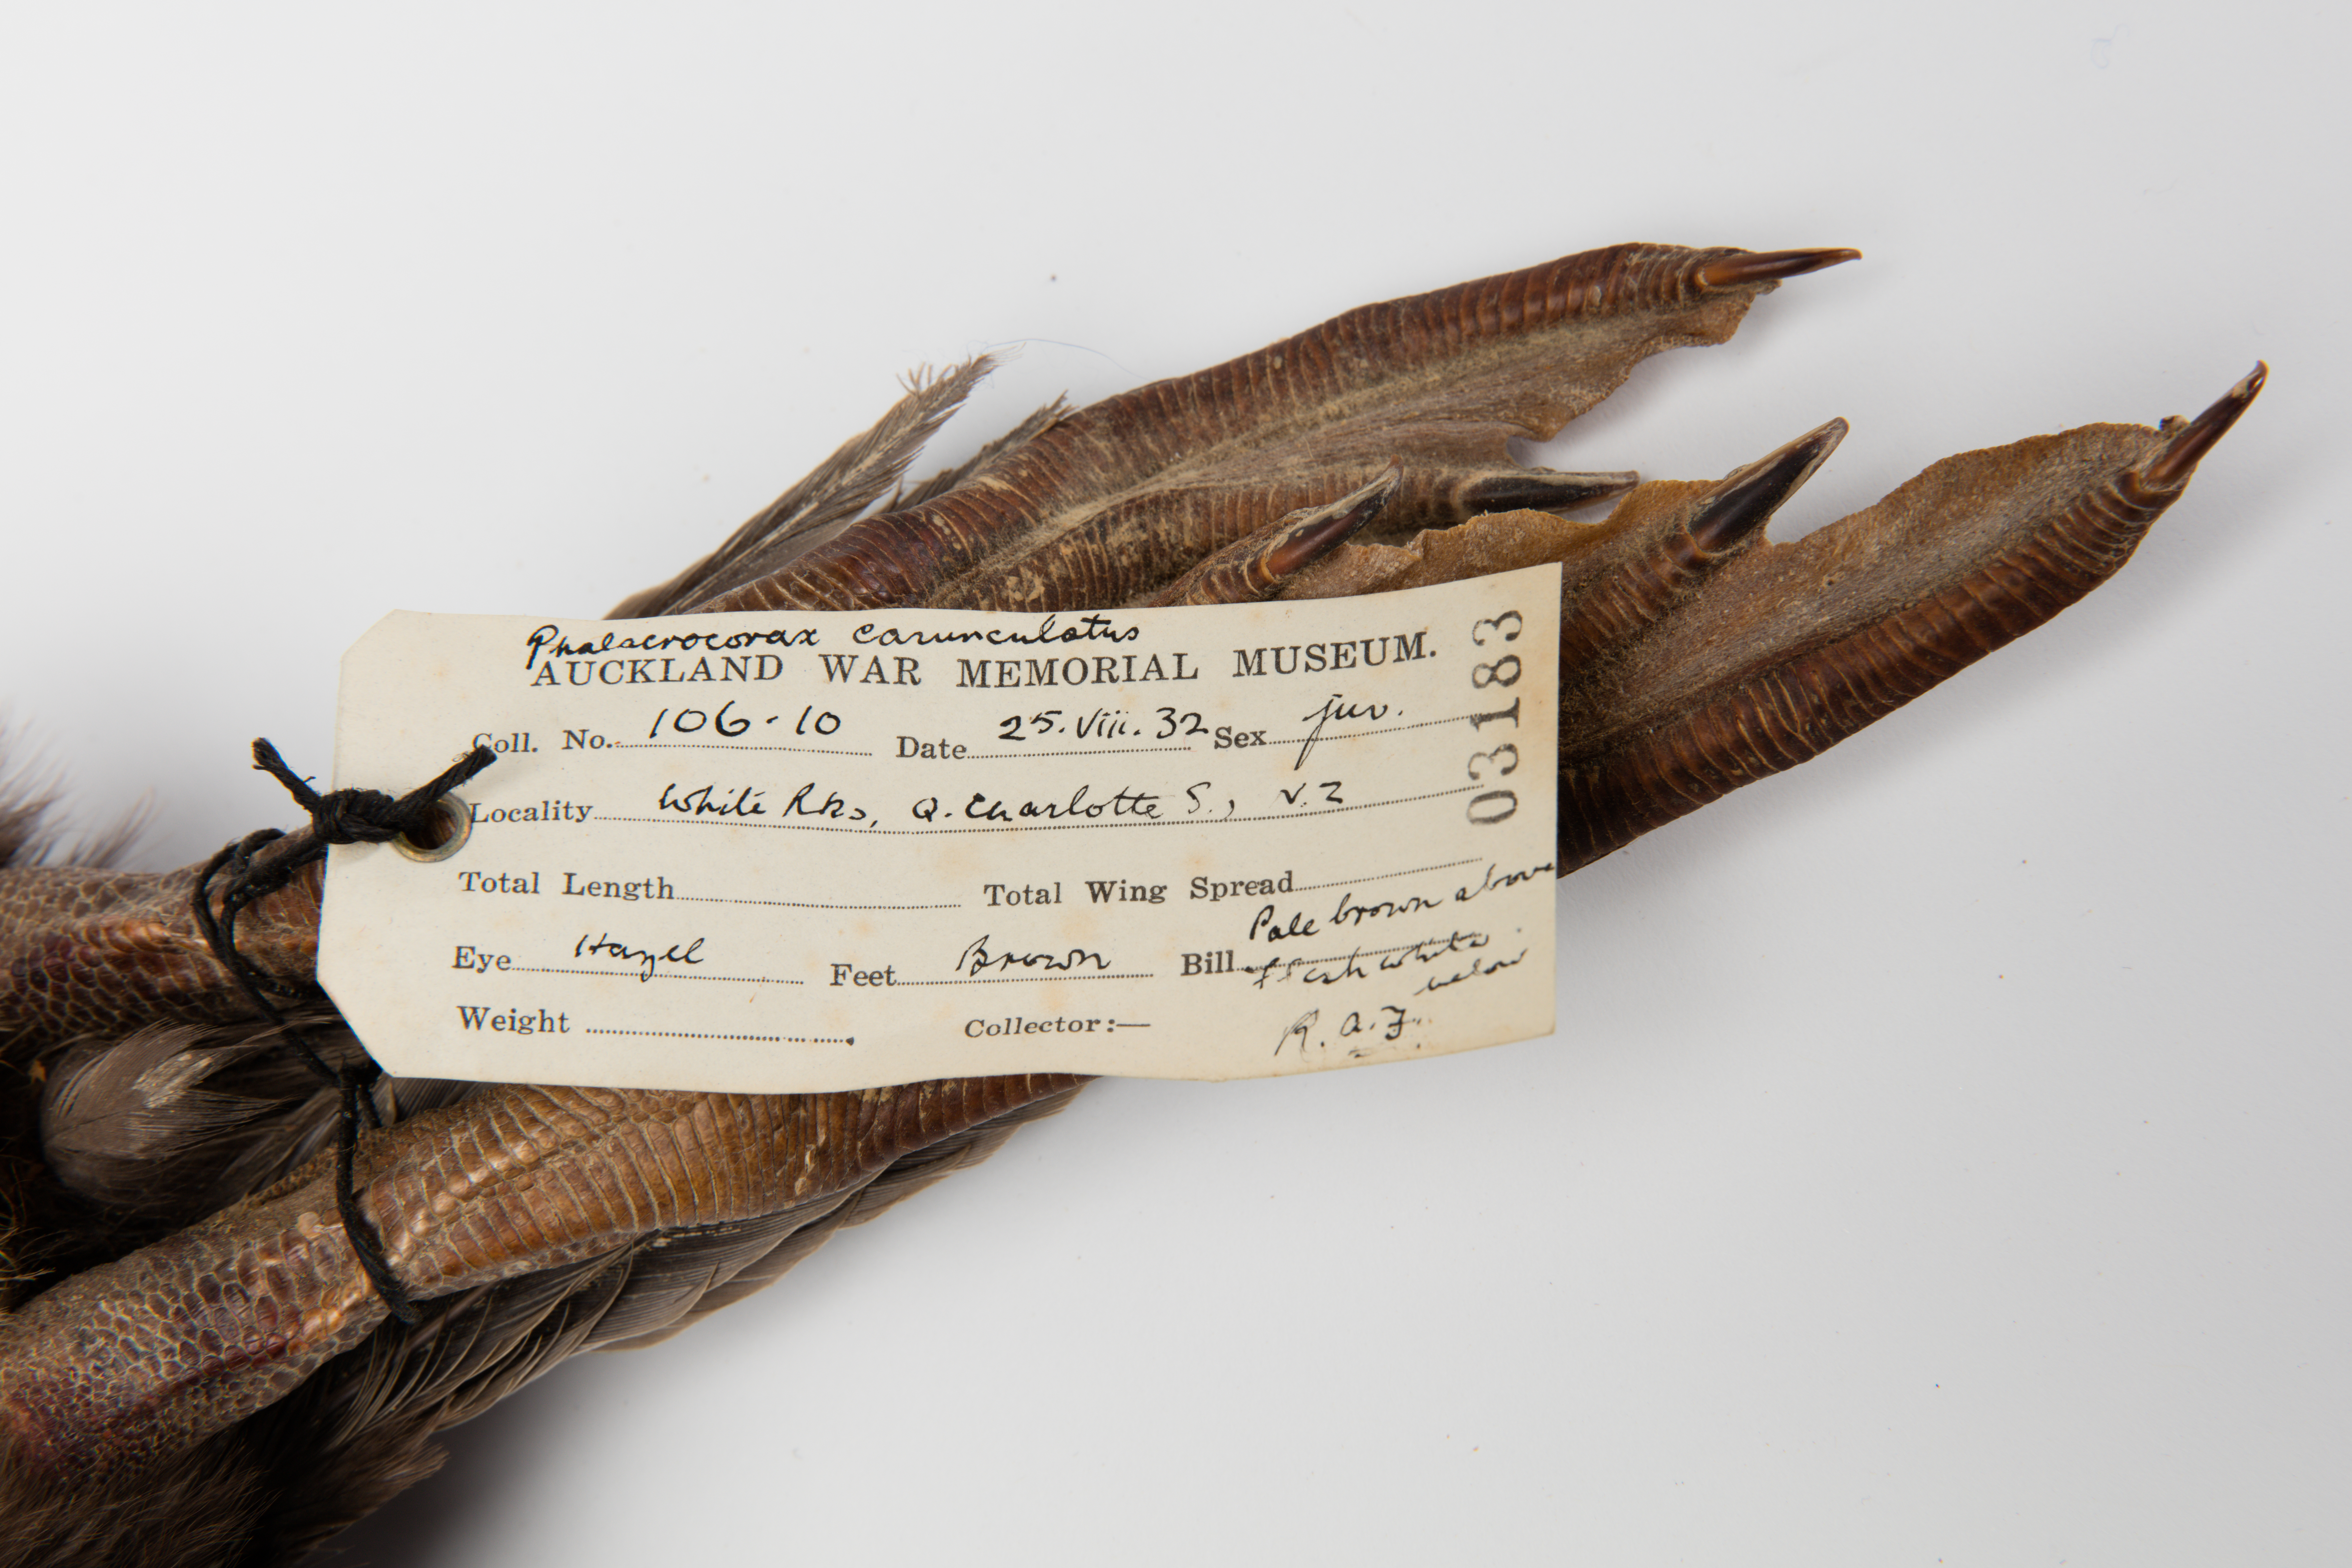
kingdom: Animalia
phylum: Chordata
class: Aves
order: Suliformes
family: Phalacrocoracidae
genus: Leucocarbo
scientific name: Leucocarbo carunculatus
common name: Rough-faced shag
